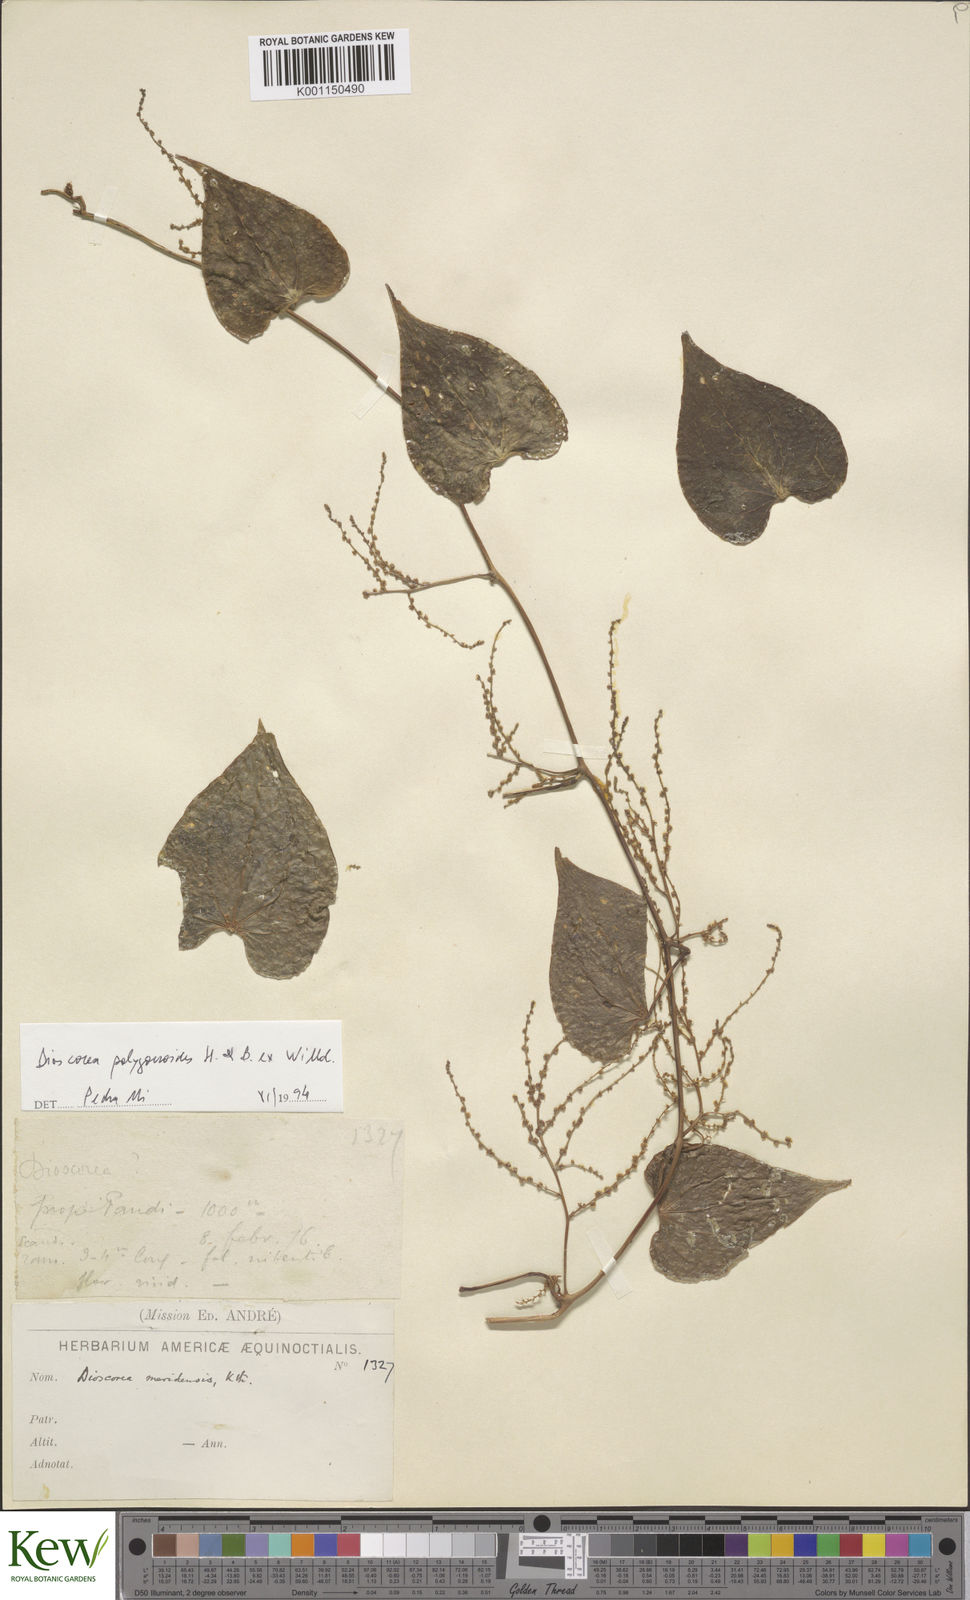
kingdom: Plantae
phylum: Tracheophyta
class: Liliopsida
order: Dioscoreales
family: Dioscoreaceae
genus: Dioscorea
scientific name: Dioscorea meridensis
